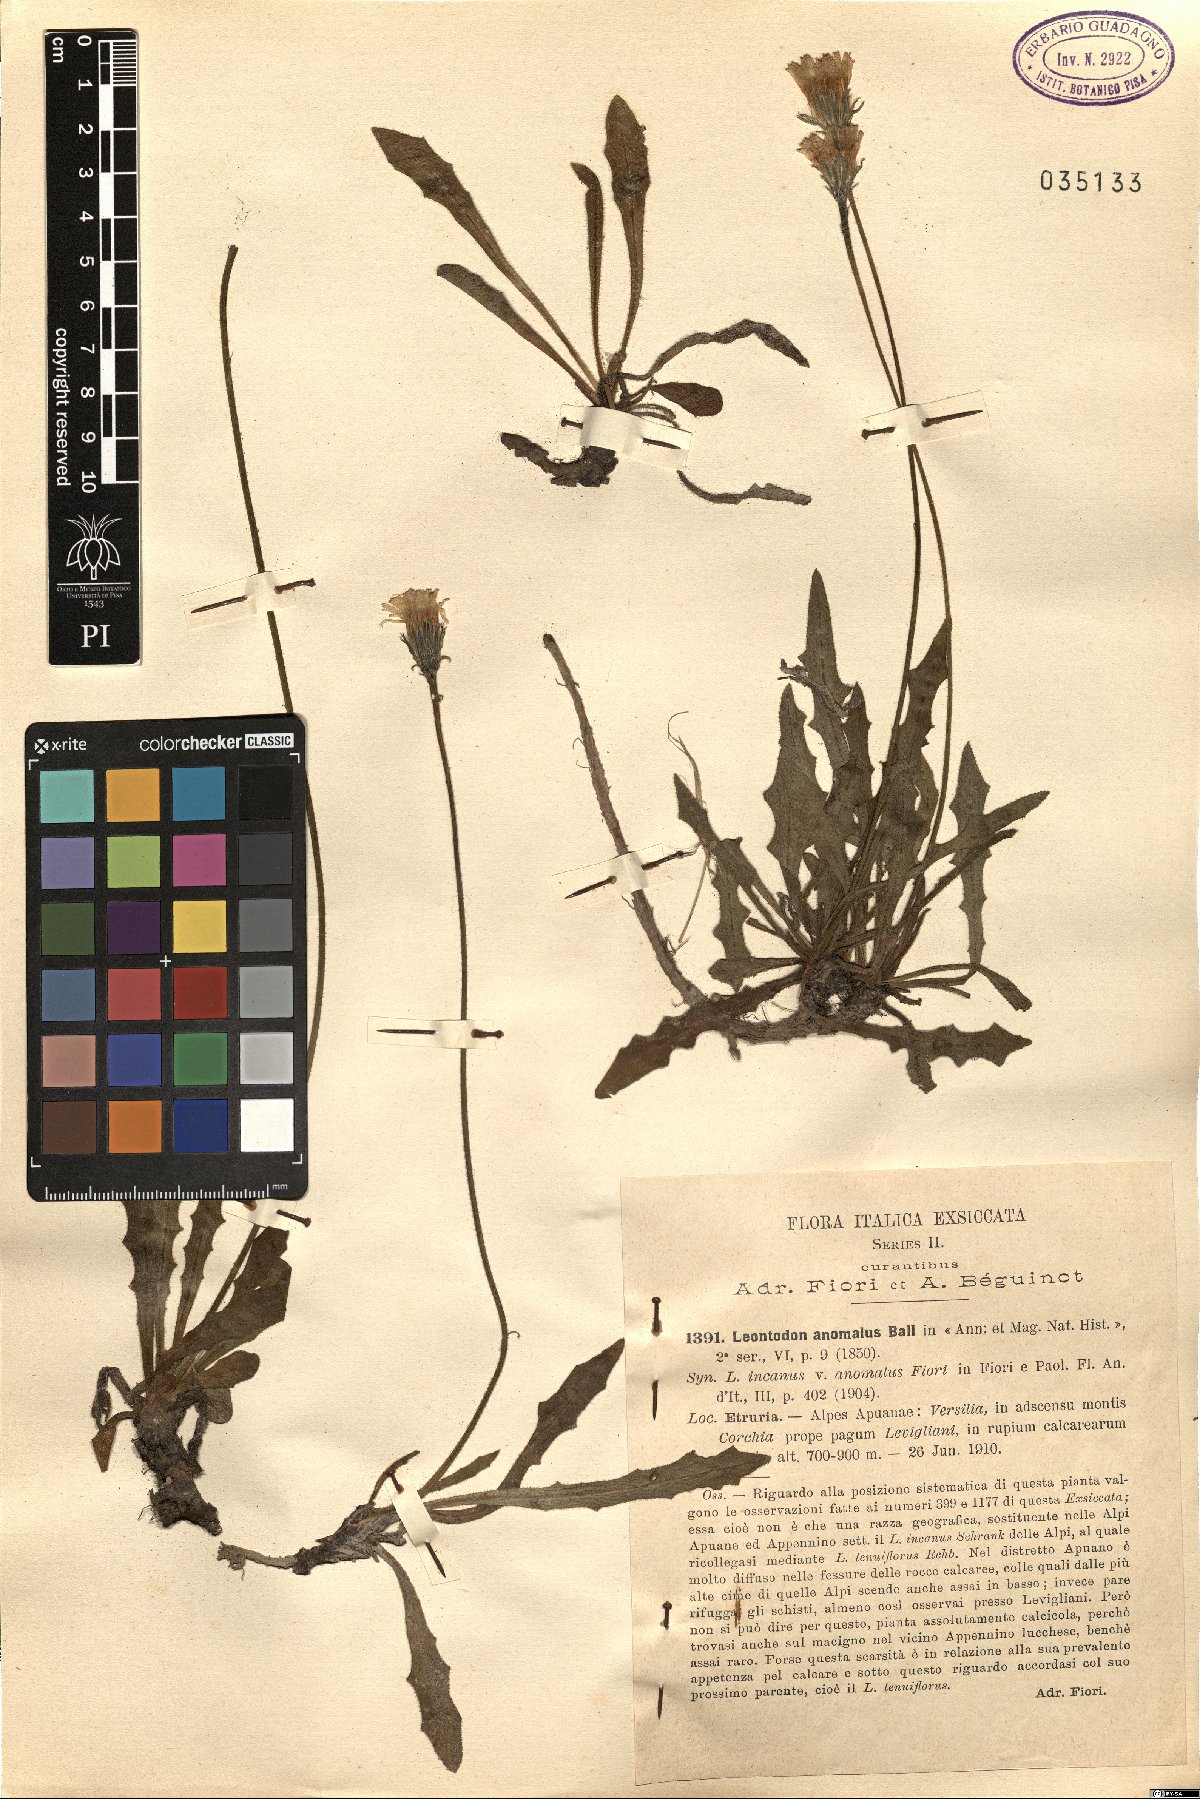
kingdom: Plantae
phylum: Tracheophyta
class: Magnoliopsida
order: Asterales
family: Asteraceae
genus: Leontodon
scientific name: Leontodon anomalus
